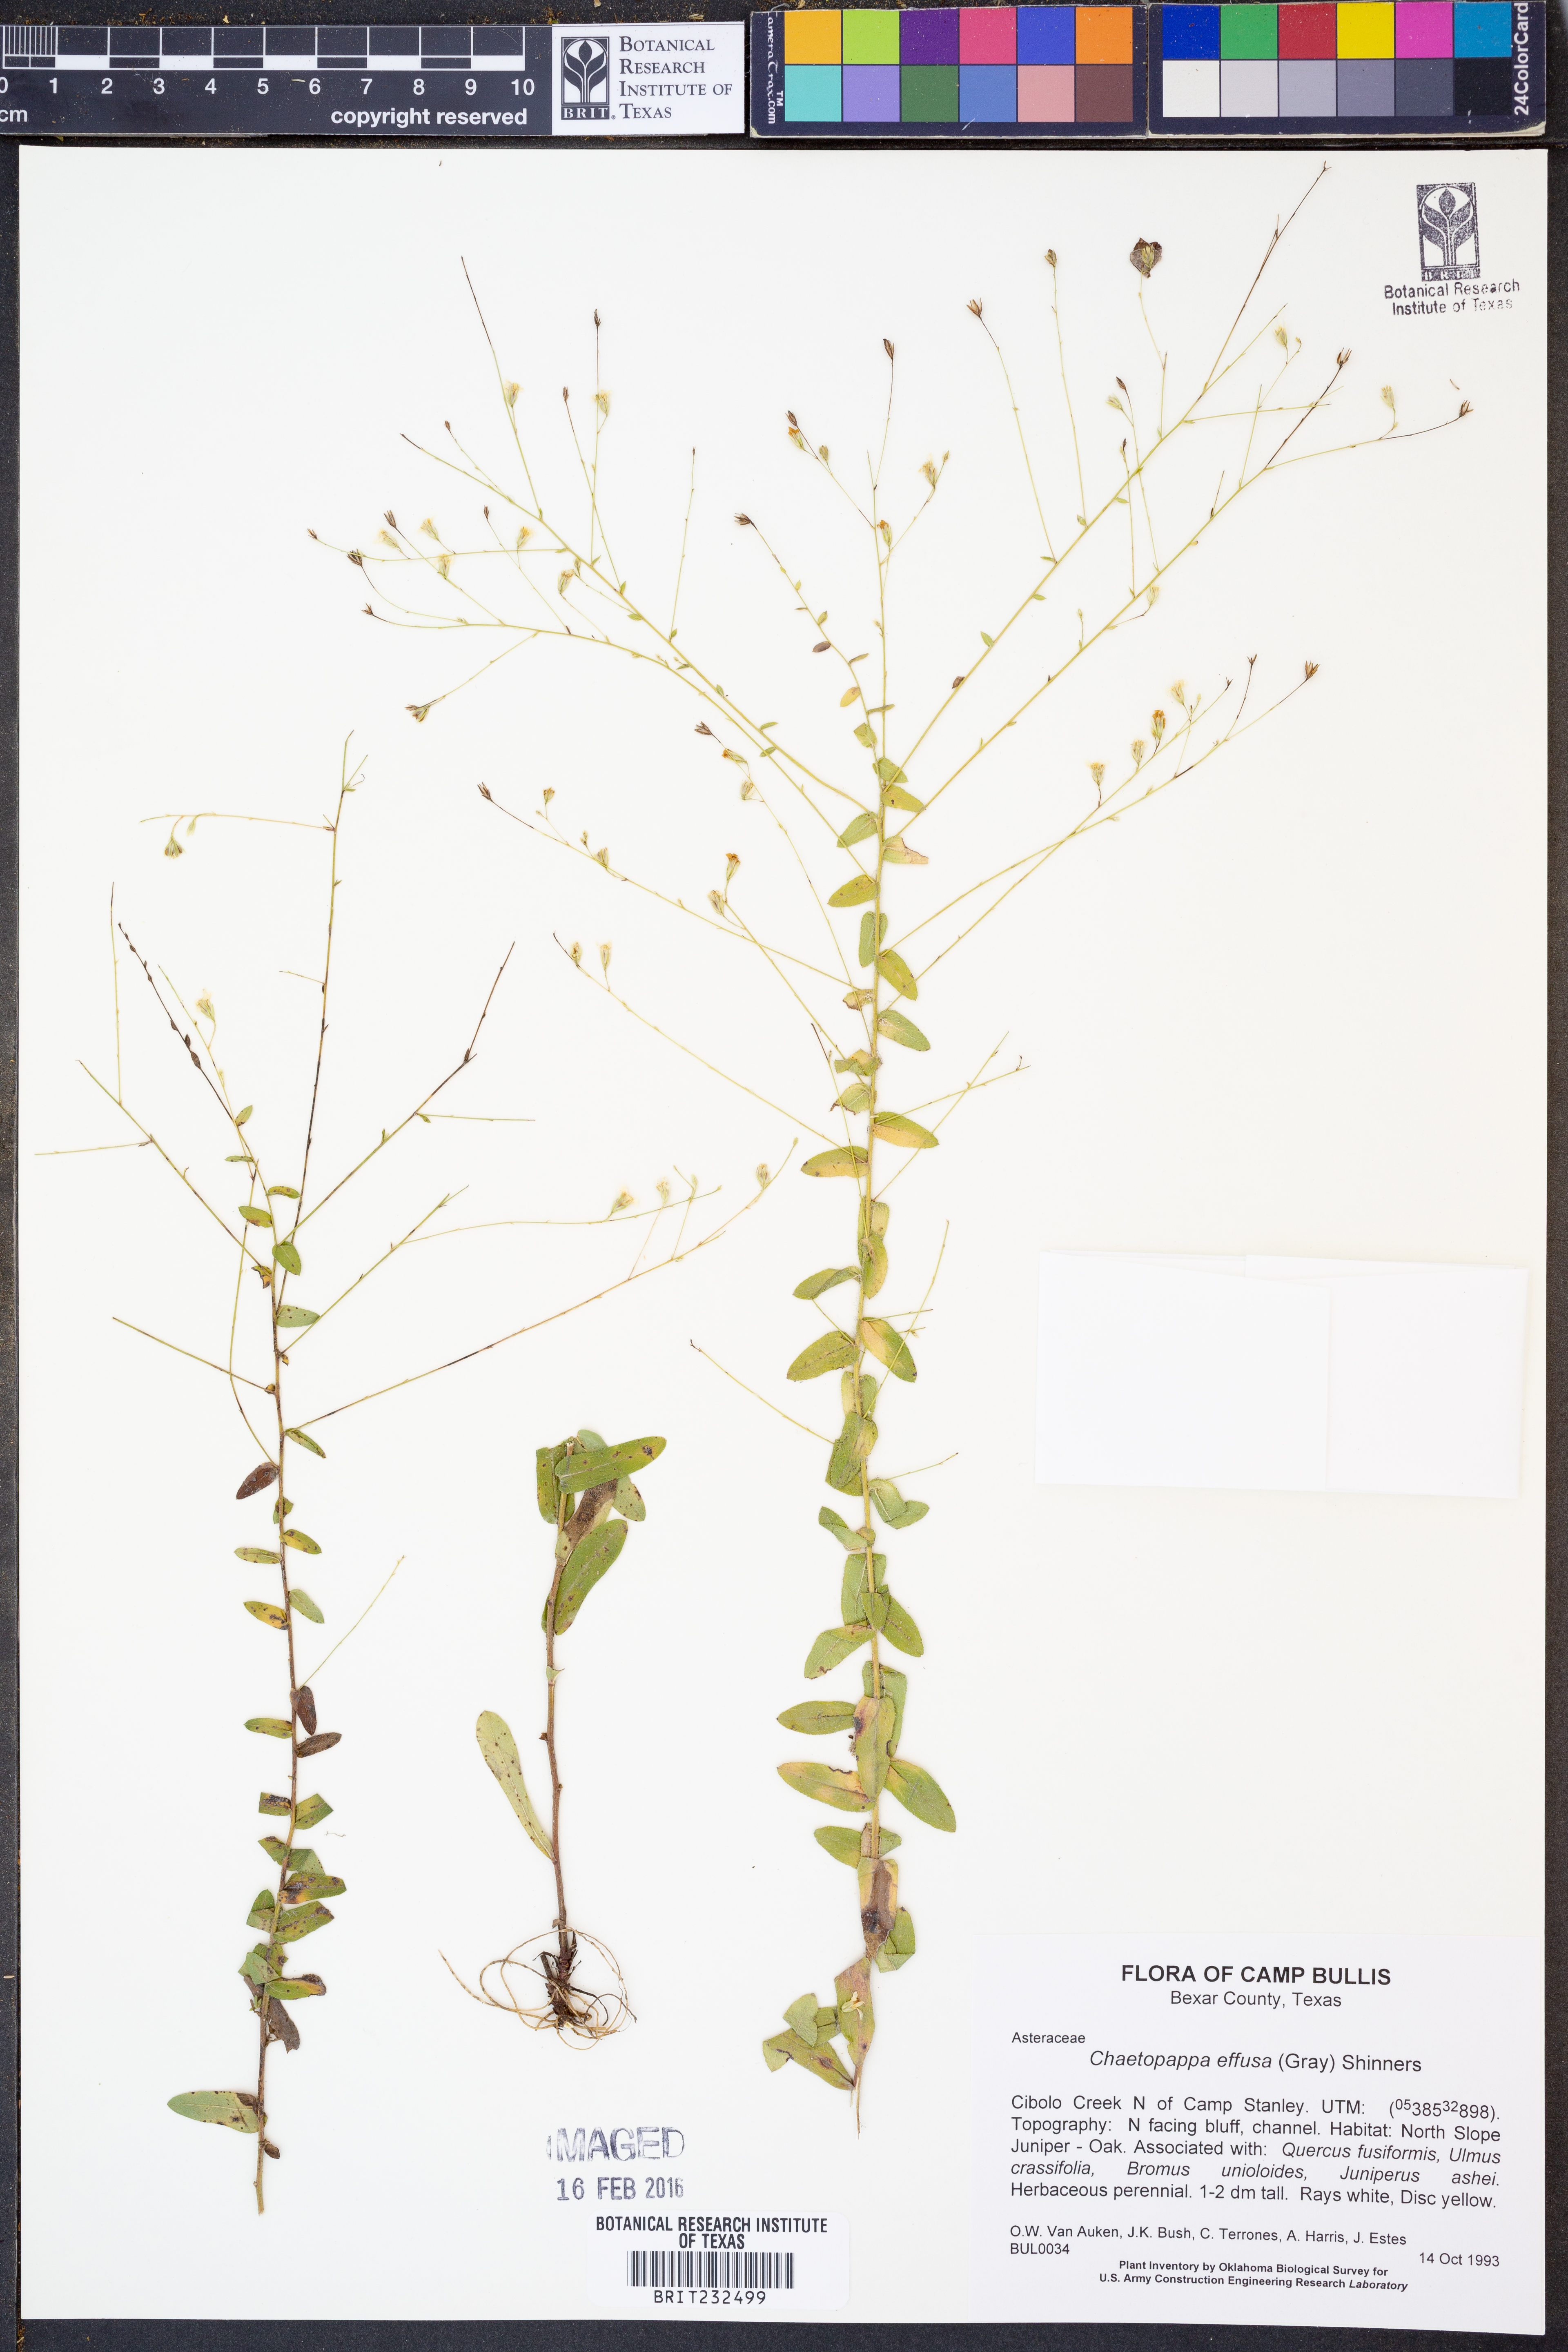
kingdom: Plantae
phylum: Tracheophyta
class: Magnoliopsida
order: Asterales
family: Asteraceae
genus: Chaetopappa
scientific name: Chaetopappa effusa
